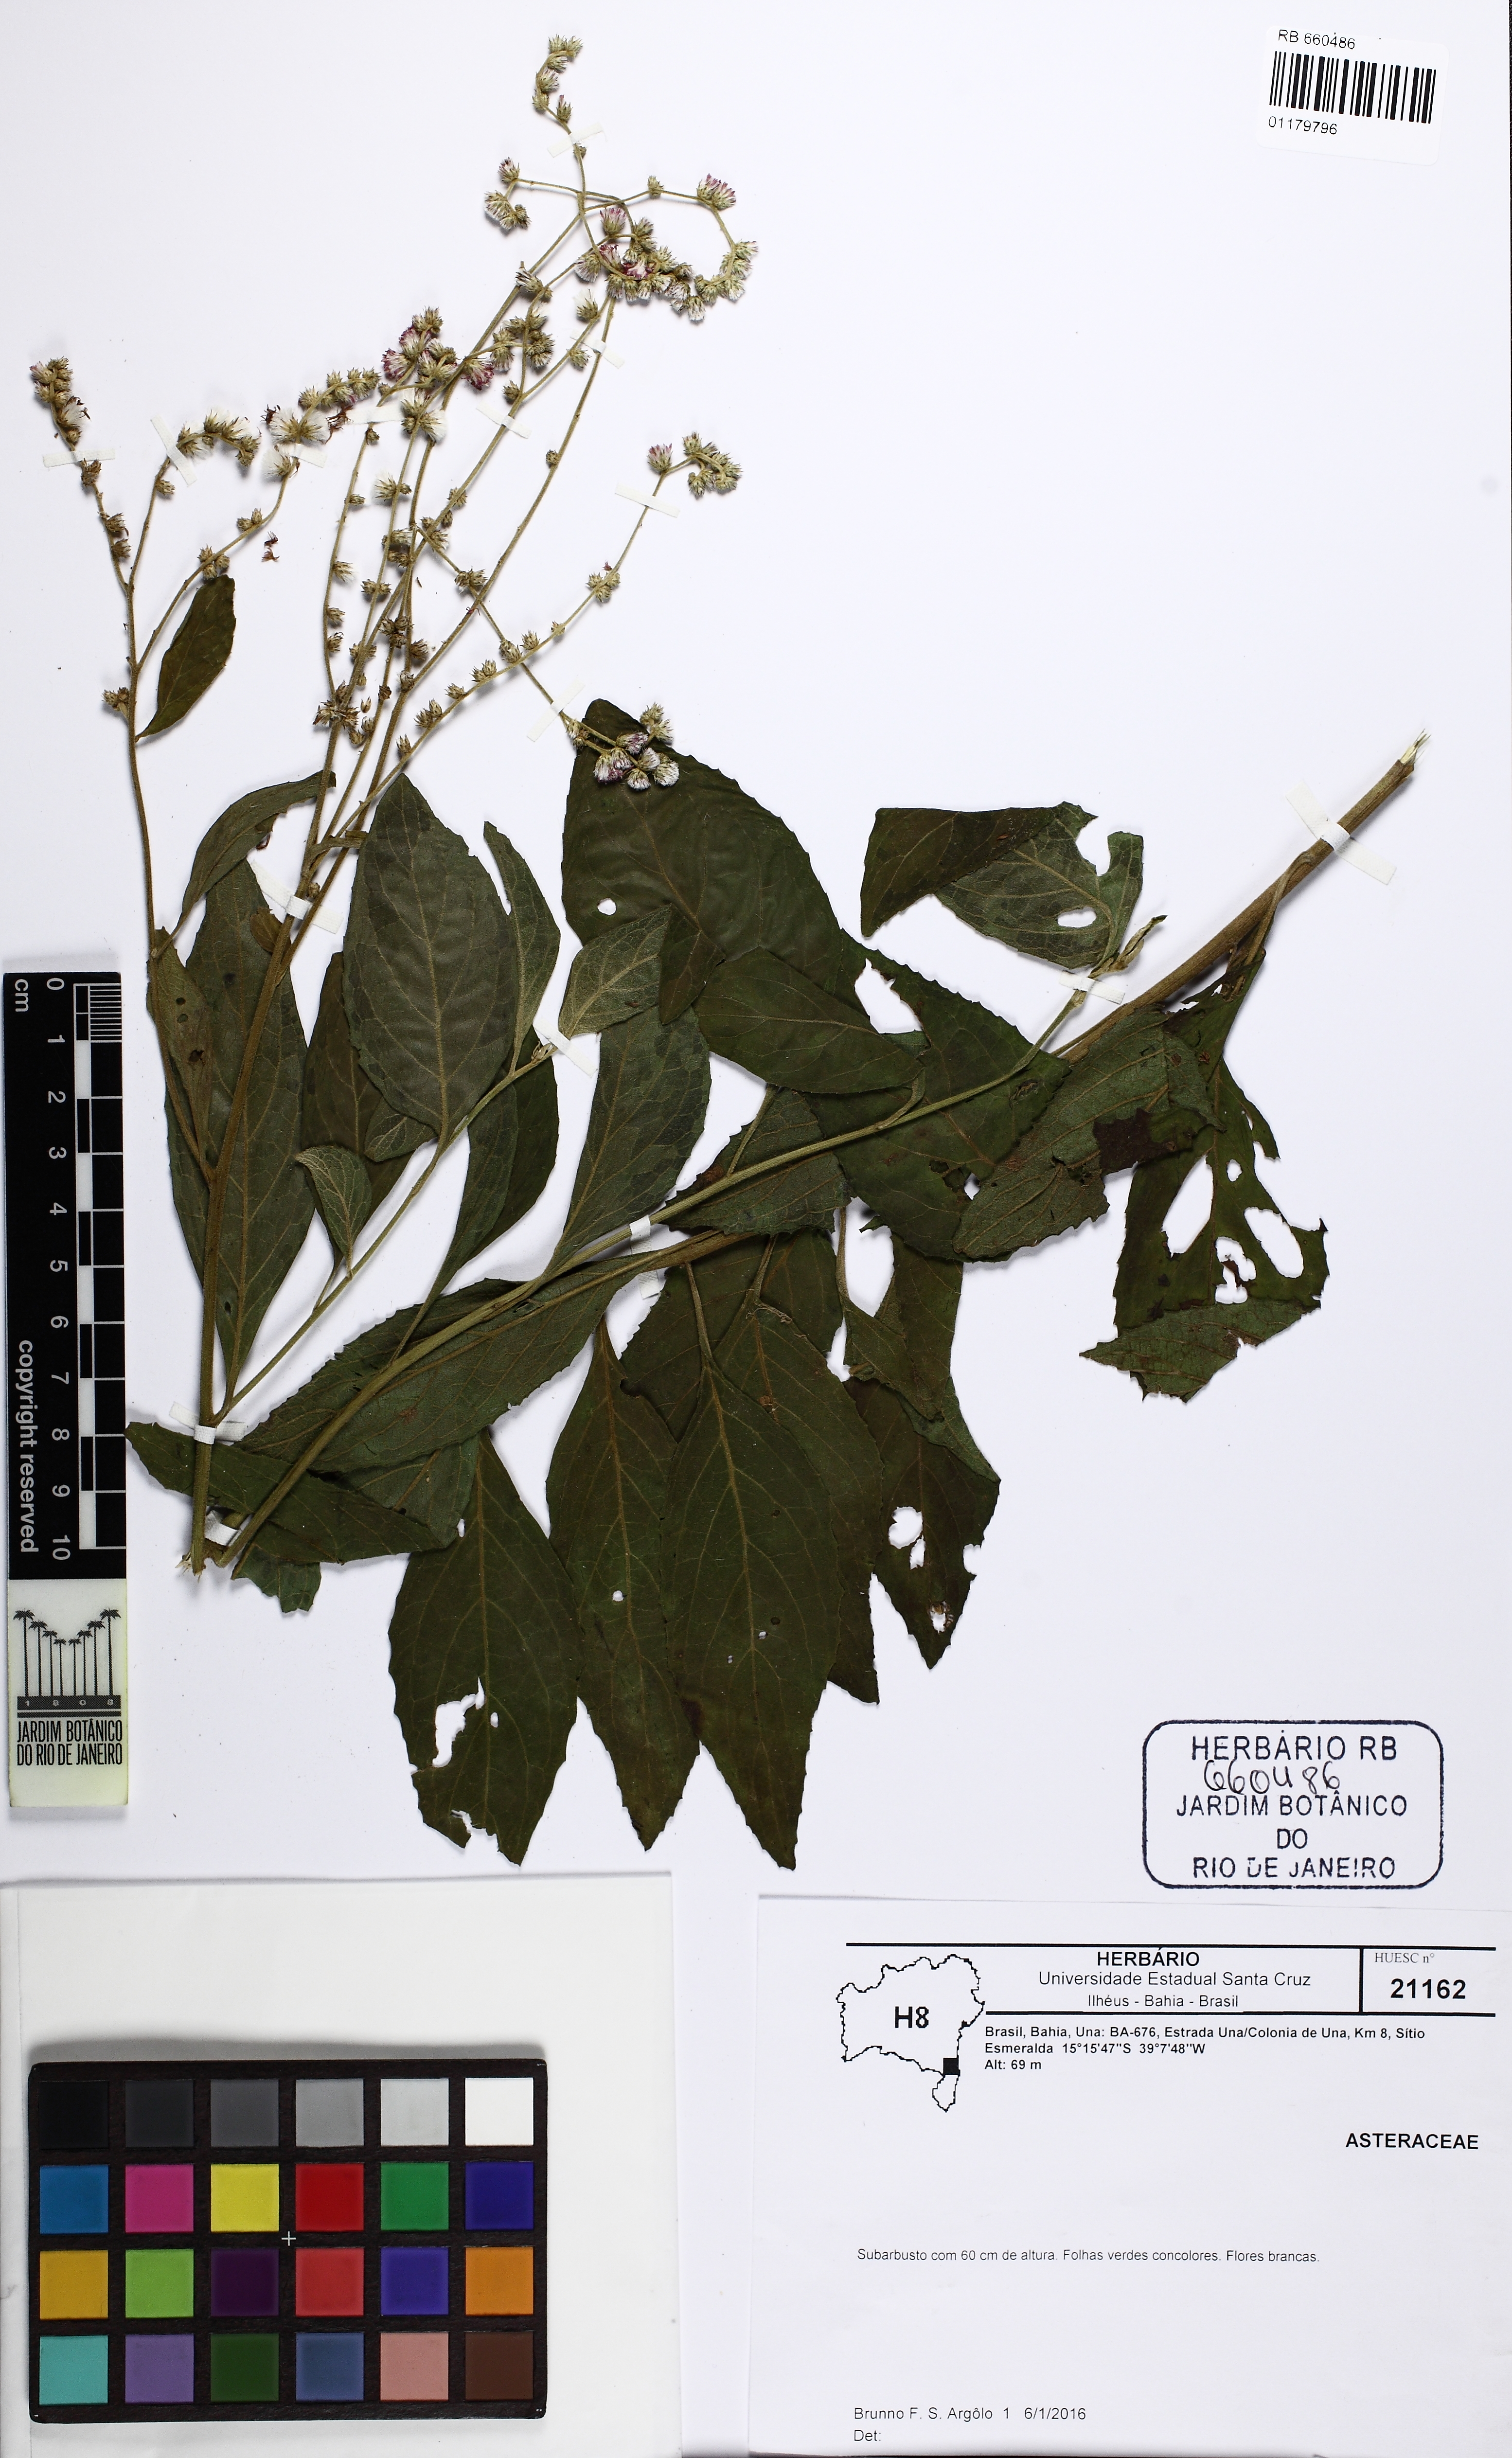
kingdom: Plantae
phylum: Tracheophyta
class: Magnoliopsida
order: Asterales
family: Asteraceae
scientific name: Asteraceae
